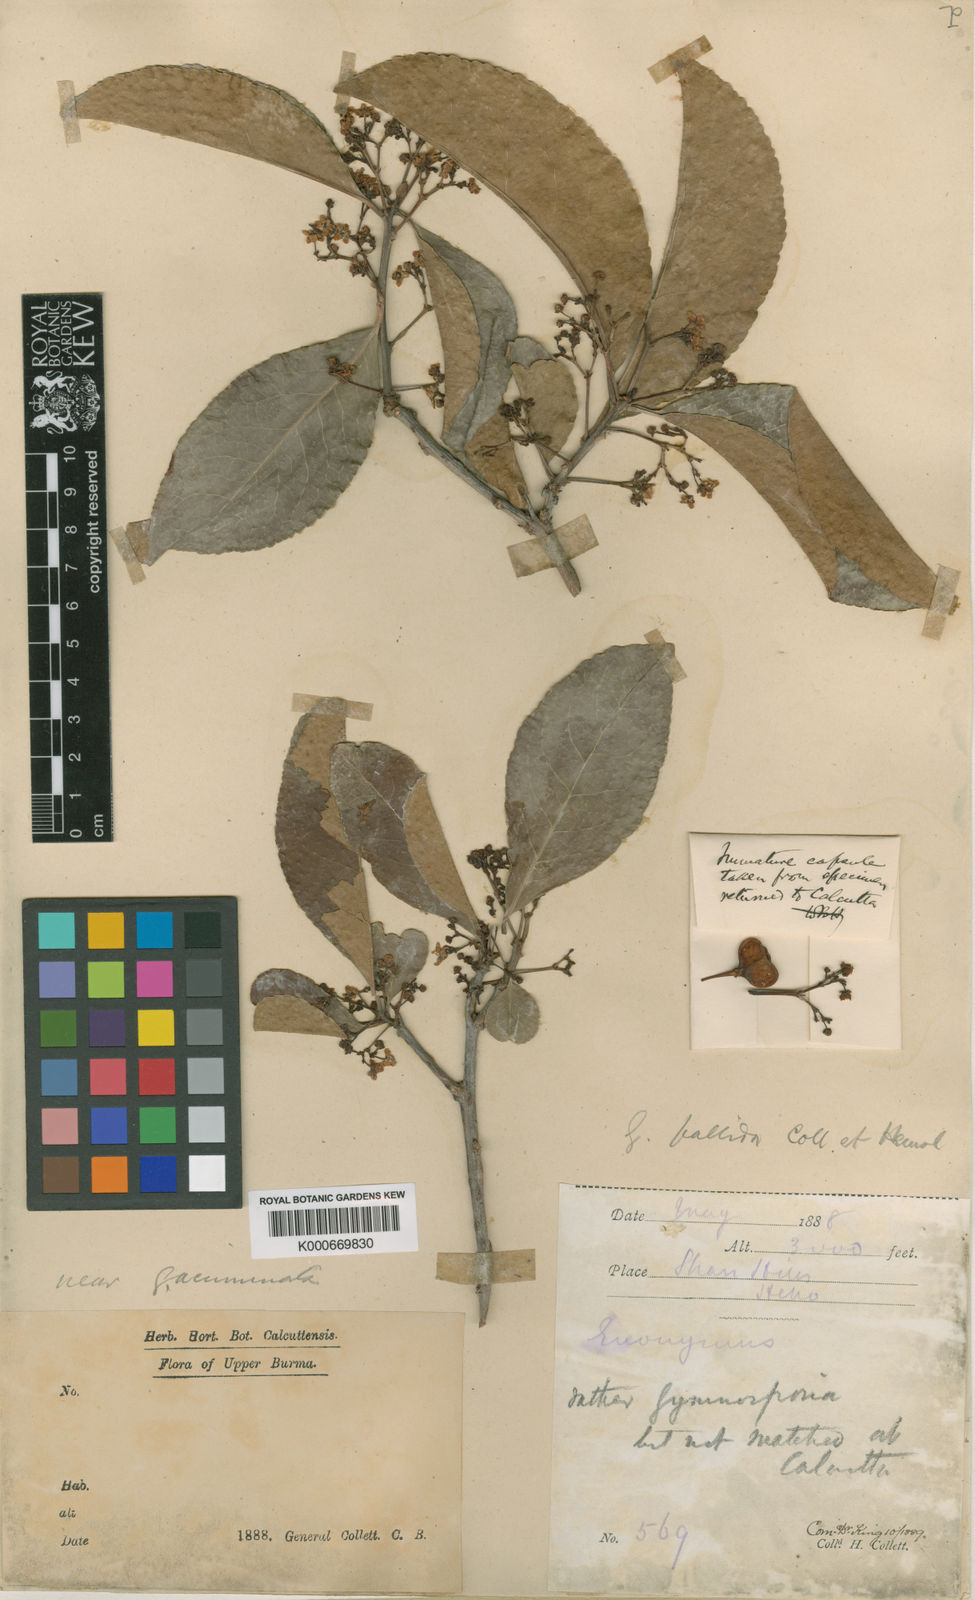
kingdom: Plantae
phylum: Tracheophyta
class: Magnoliopsida
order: Celastrales
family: Celastraceae
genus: Gymnosporia
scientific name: Gymnosporia pallida
